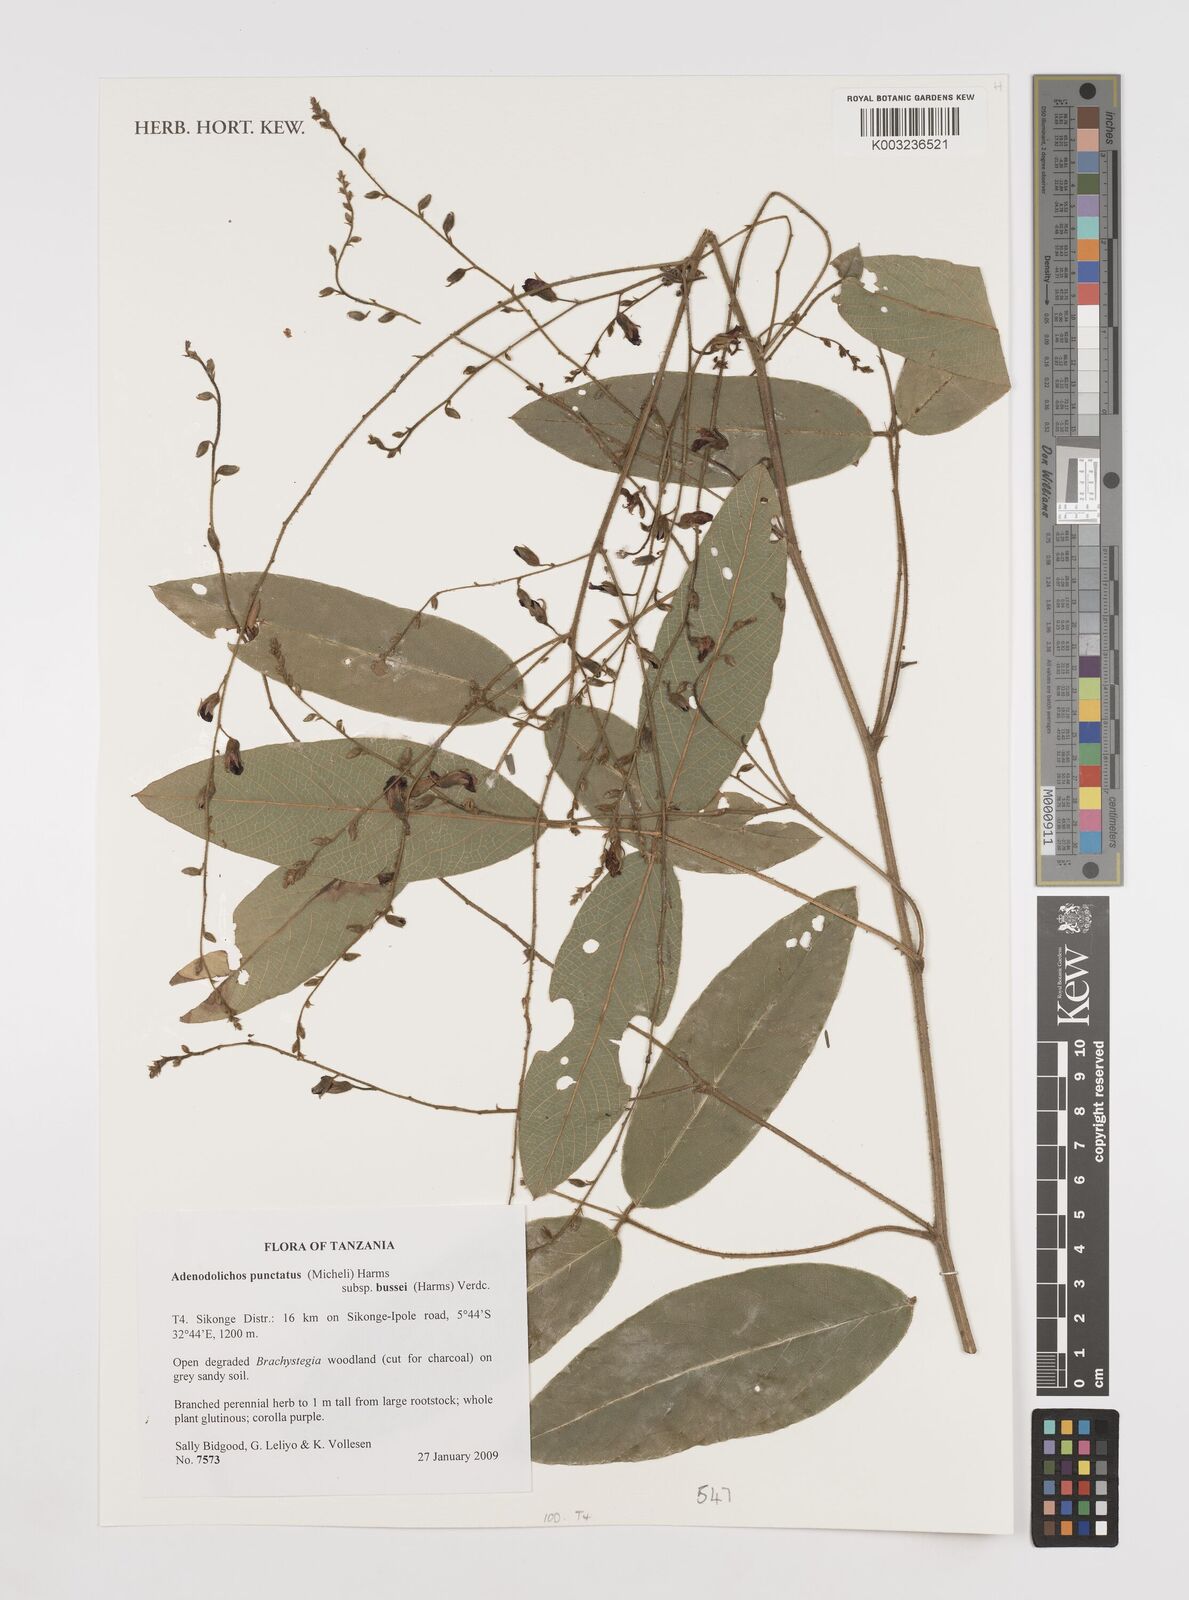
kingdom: Plantae
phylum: Tracheophyta
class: Magnoliopsida
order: Fabales
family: Fabaceae
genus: Adenodolichos
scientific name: Adenodolichos punctatus
